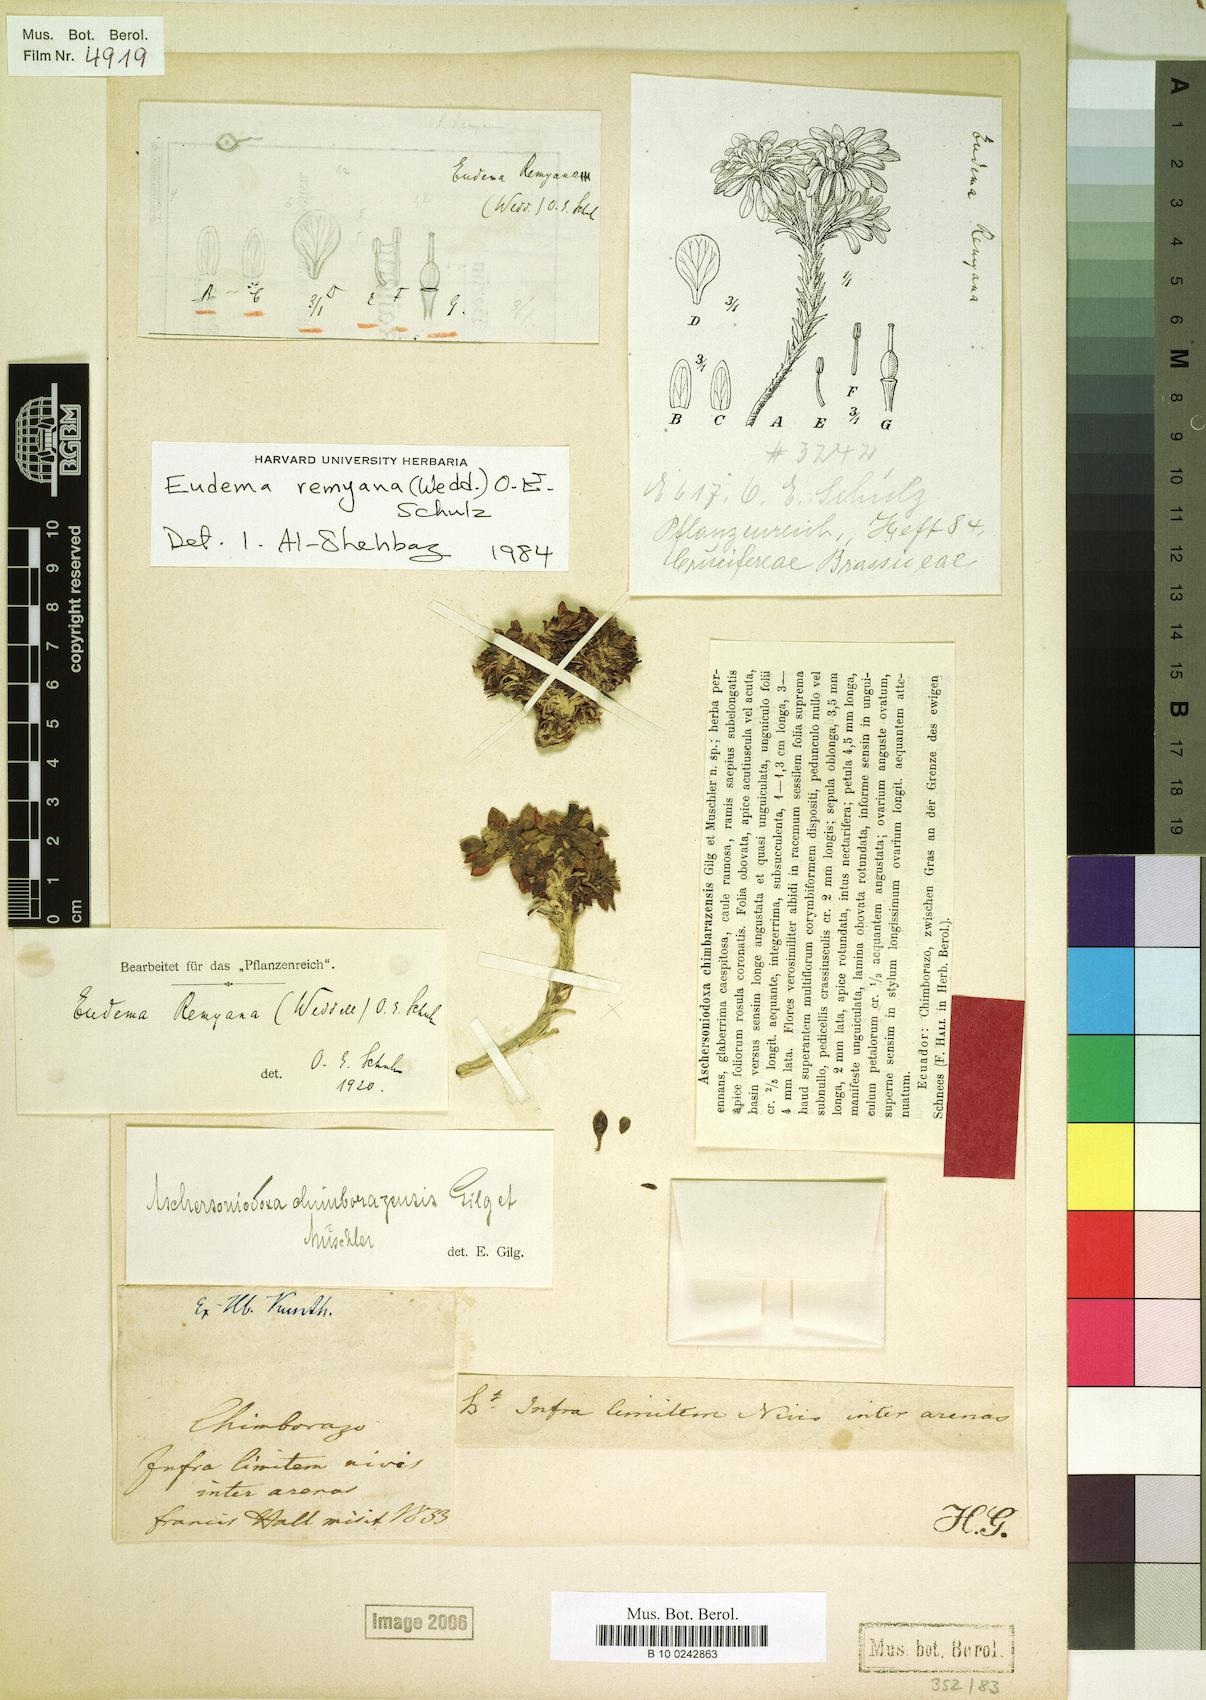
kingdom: Plantae
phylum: Tracheophyta
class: Magnoliopsida
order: Brassicales
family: Brassicaceae
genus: Eudema
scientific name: Eudema nubigena
